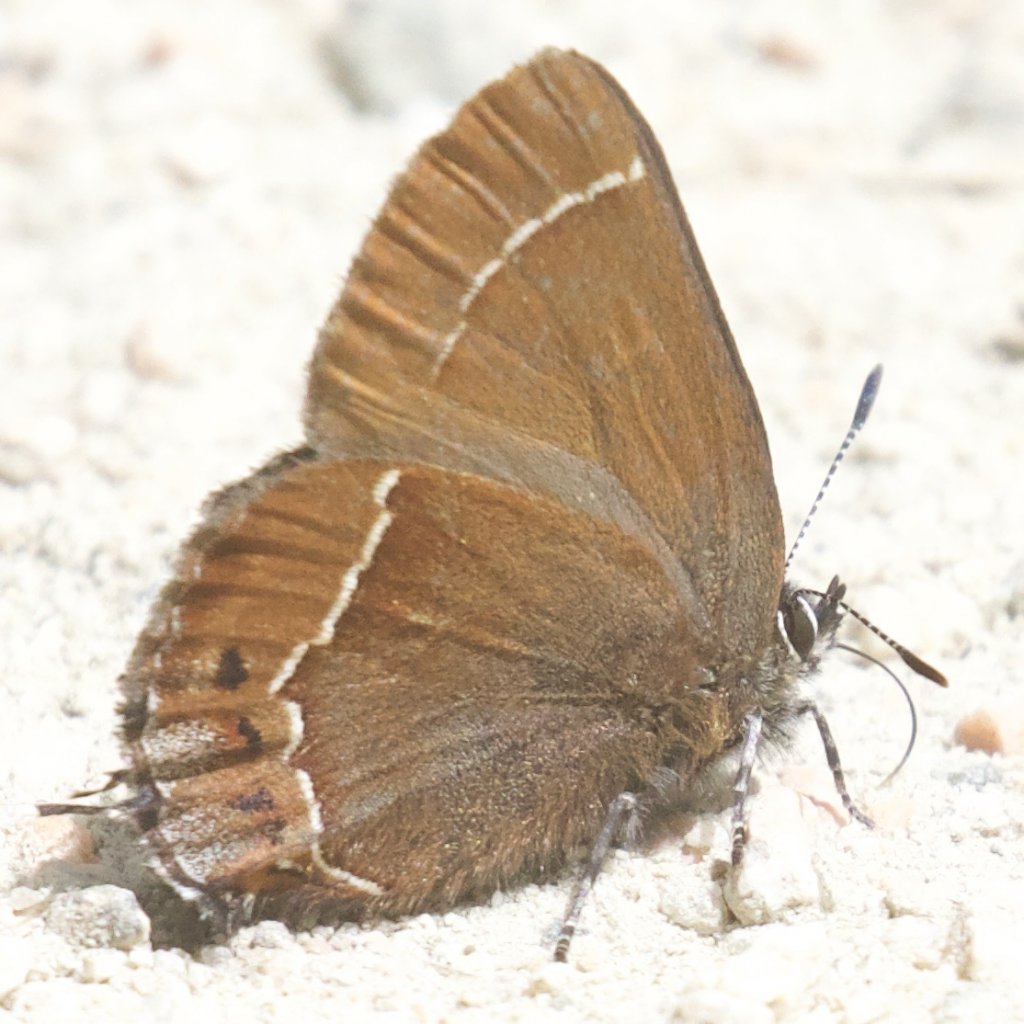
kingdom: Animalia
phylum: Arthropoda
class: Insecta
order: Lepidoptera
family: Lycaenidae
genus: Thecla
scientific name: Thecla johnsoni
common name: Johnson's Hairstreak
